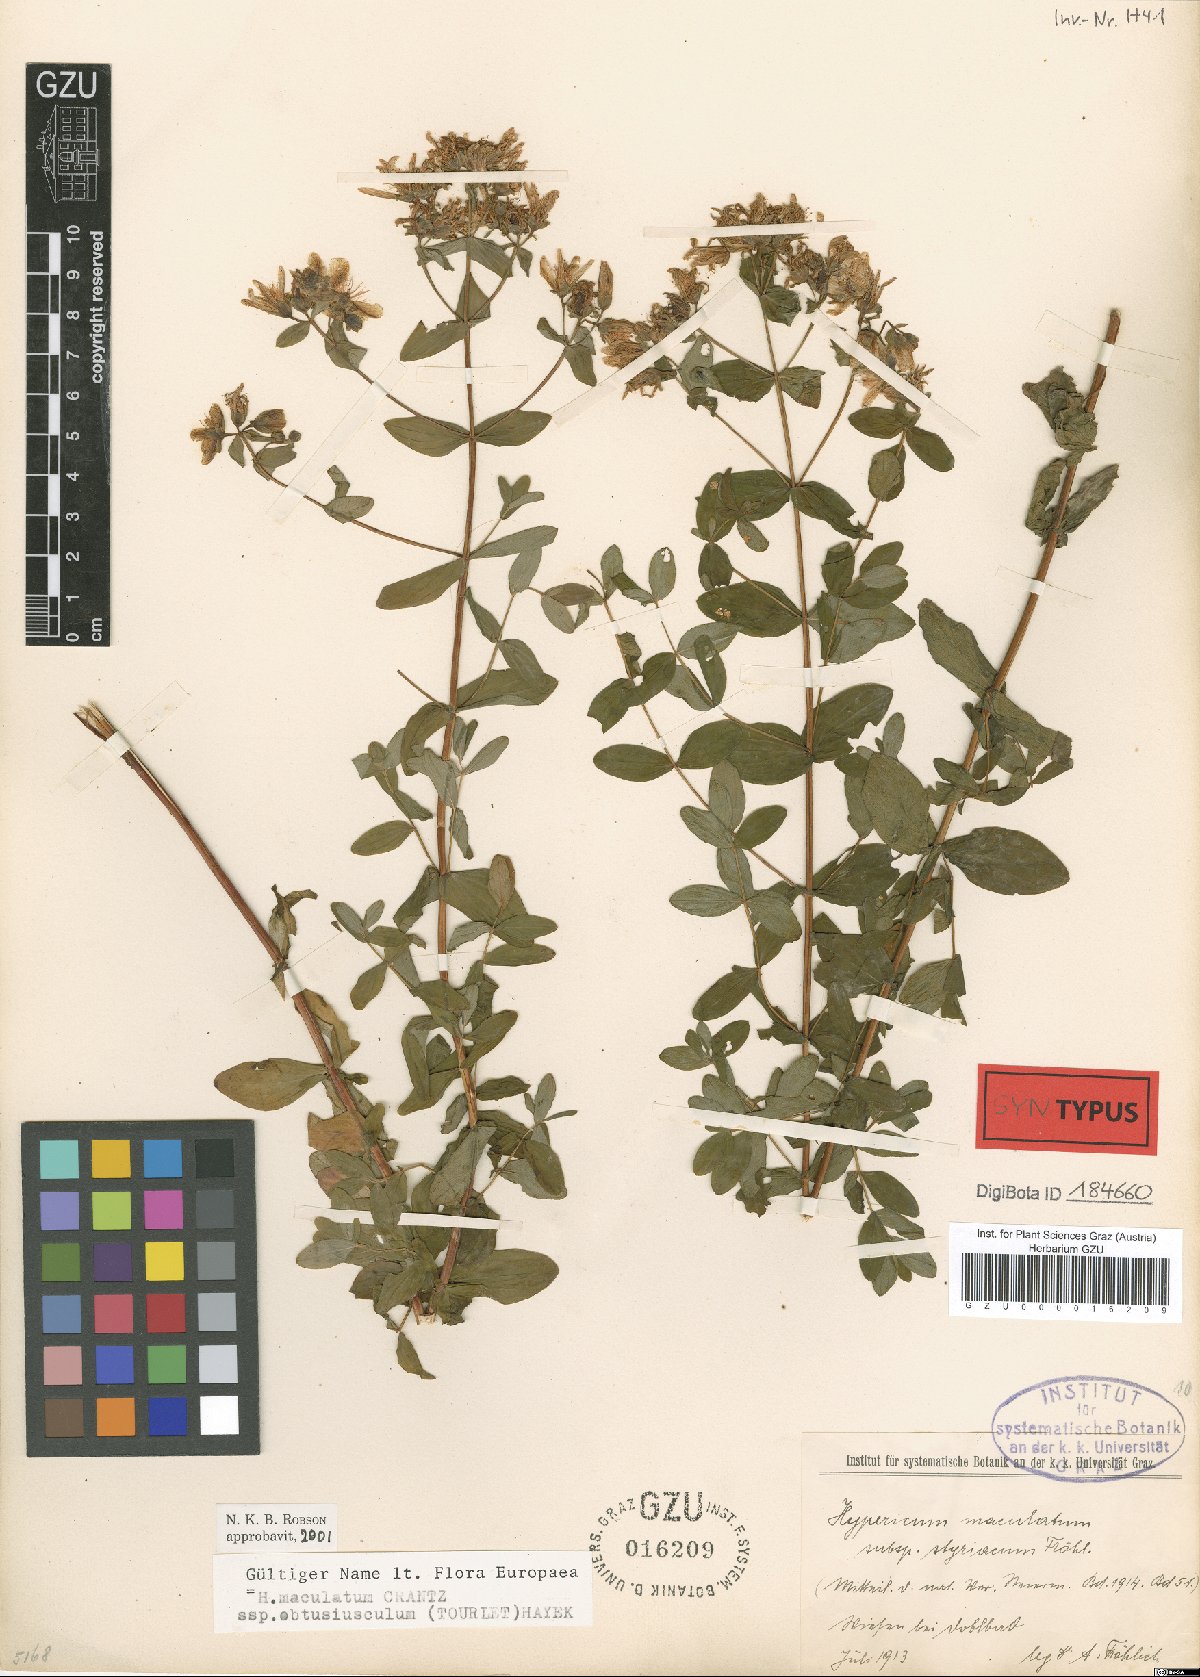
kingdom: Plantae
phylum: Tracheophyta
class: Magnoliopsida
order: Malpighiales
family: Hypericaceae
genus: Hypericum
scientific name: Hypericum dubium
